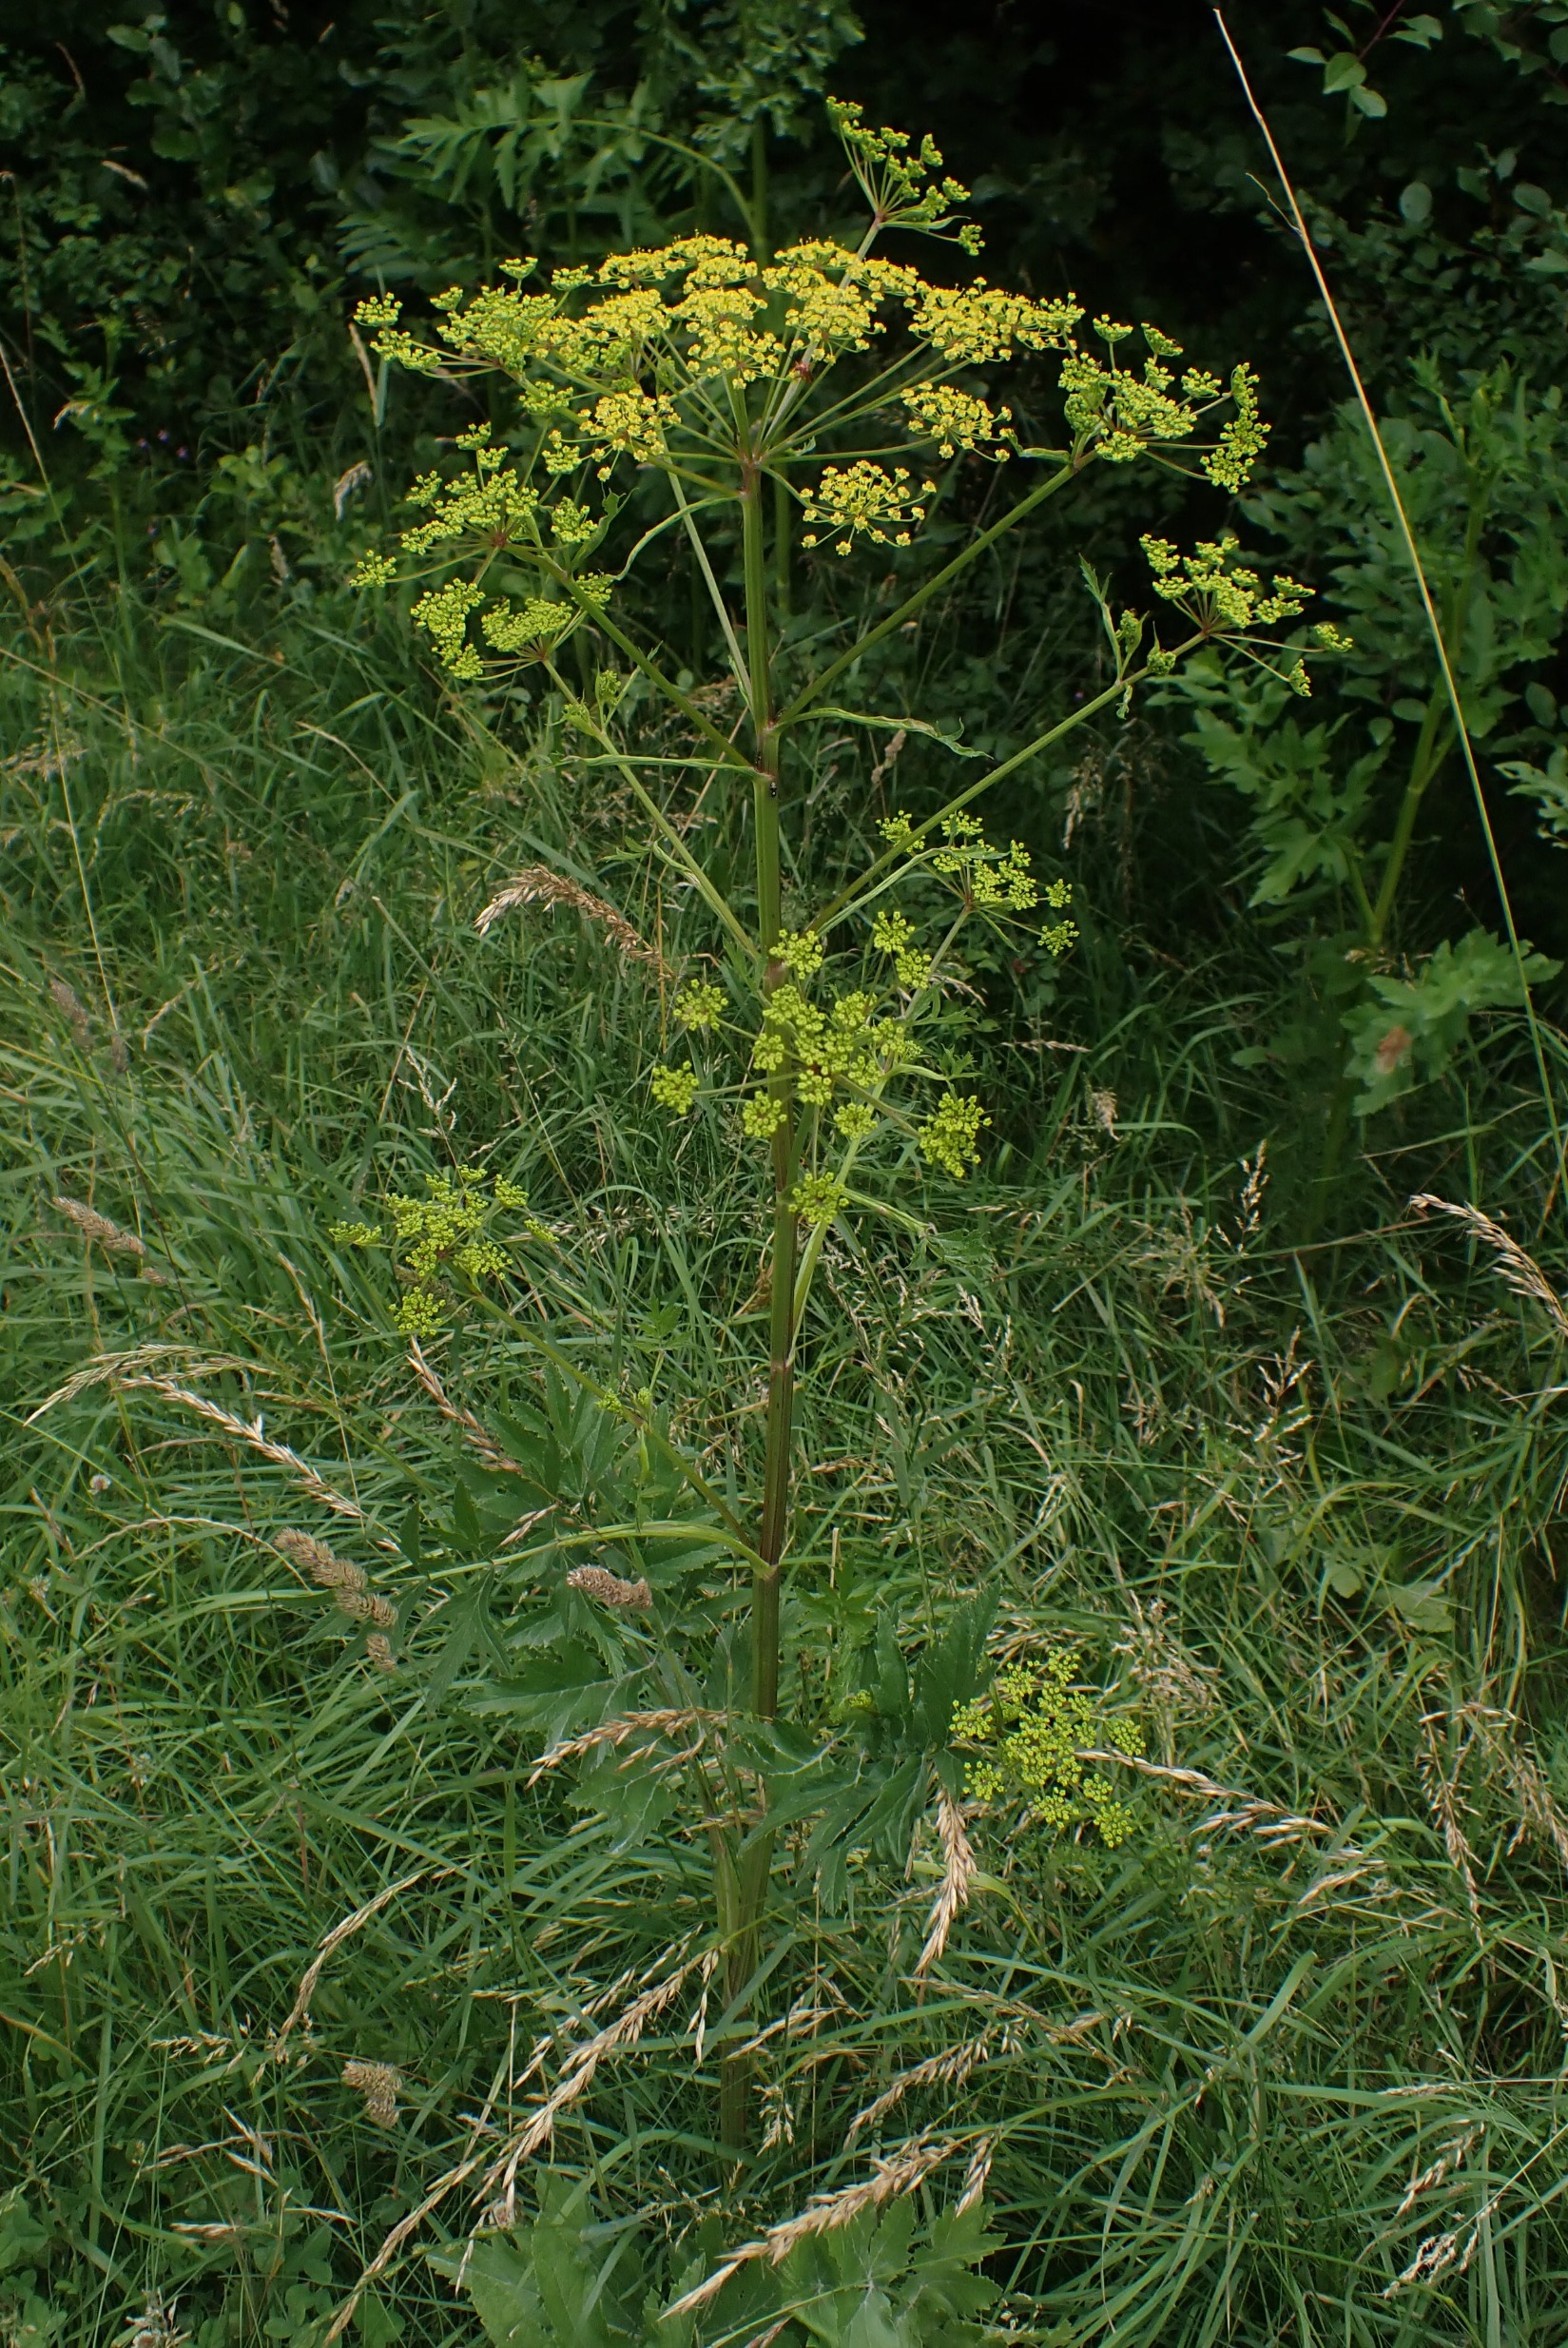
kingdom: Plantae
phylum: Tracheophyta
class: Magnoliopsida
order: Apiales
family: Apiaceae
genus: Pastinaca
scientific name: Pastinaca sativa
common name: Pastinak
